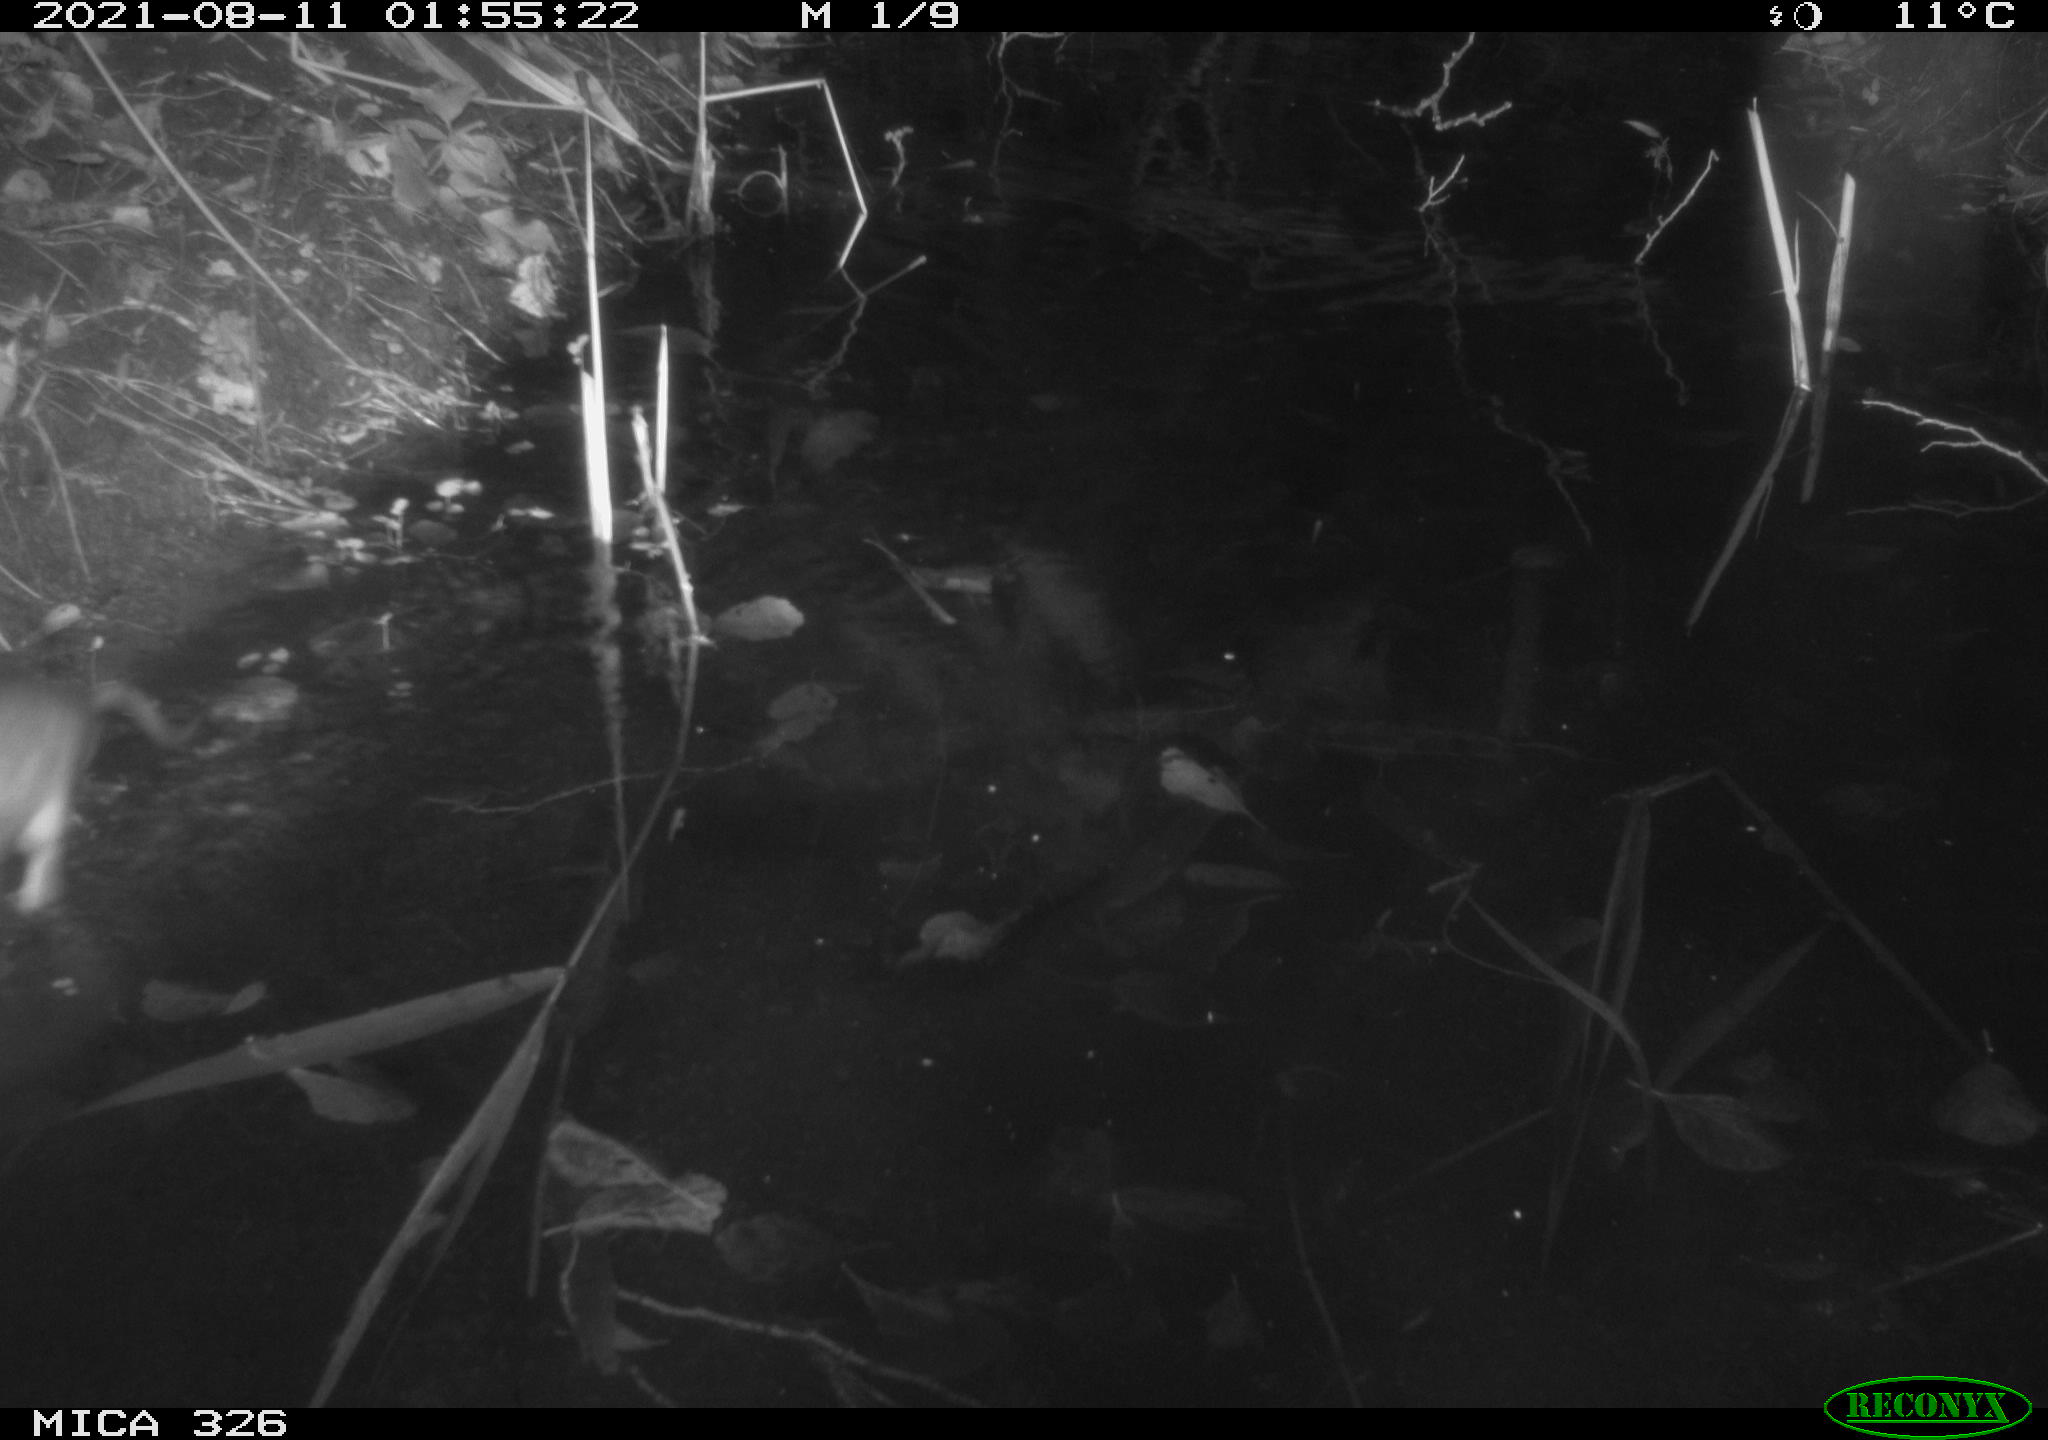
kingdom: Animalia
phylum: Chordata
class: Mammalia
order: Rodentia
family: Muridae
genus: Rattus
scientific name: Rattus norvegicus
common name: Brown rat
